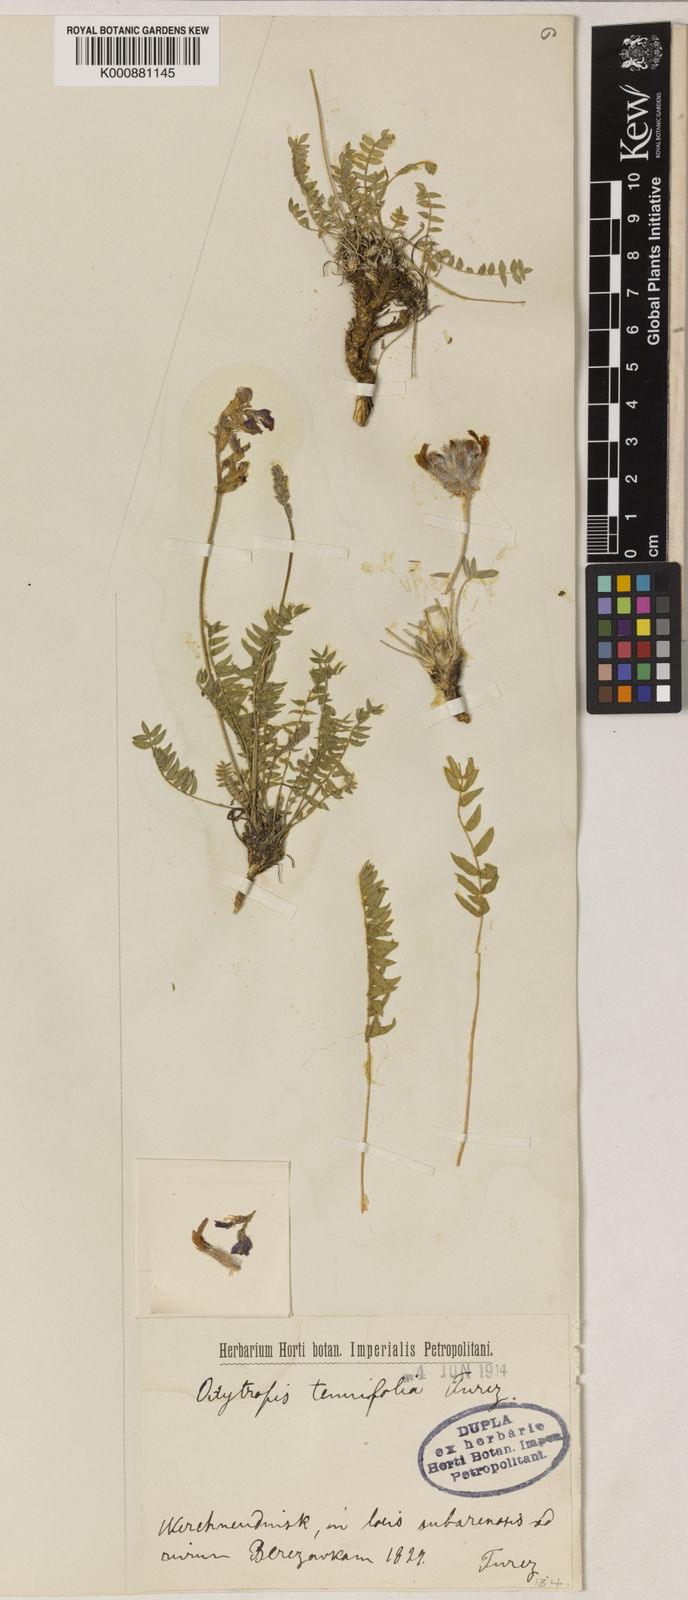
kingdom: Plantae
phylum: Tracheophyta
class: Magnoliopsida
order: Fabales
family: Fabaceae
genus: Oxytropis
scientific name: Oxytropis tachtensis
